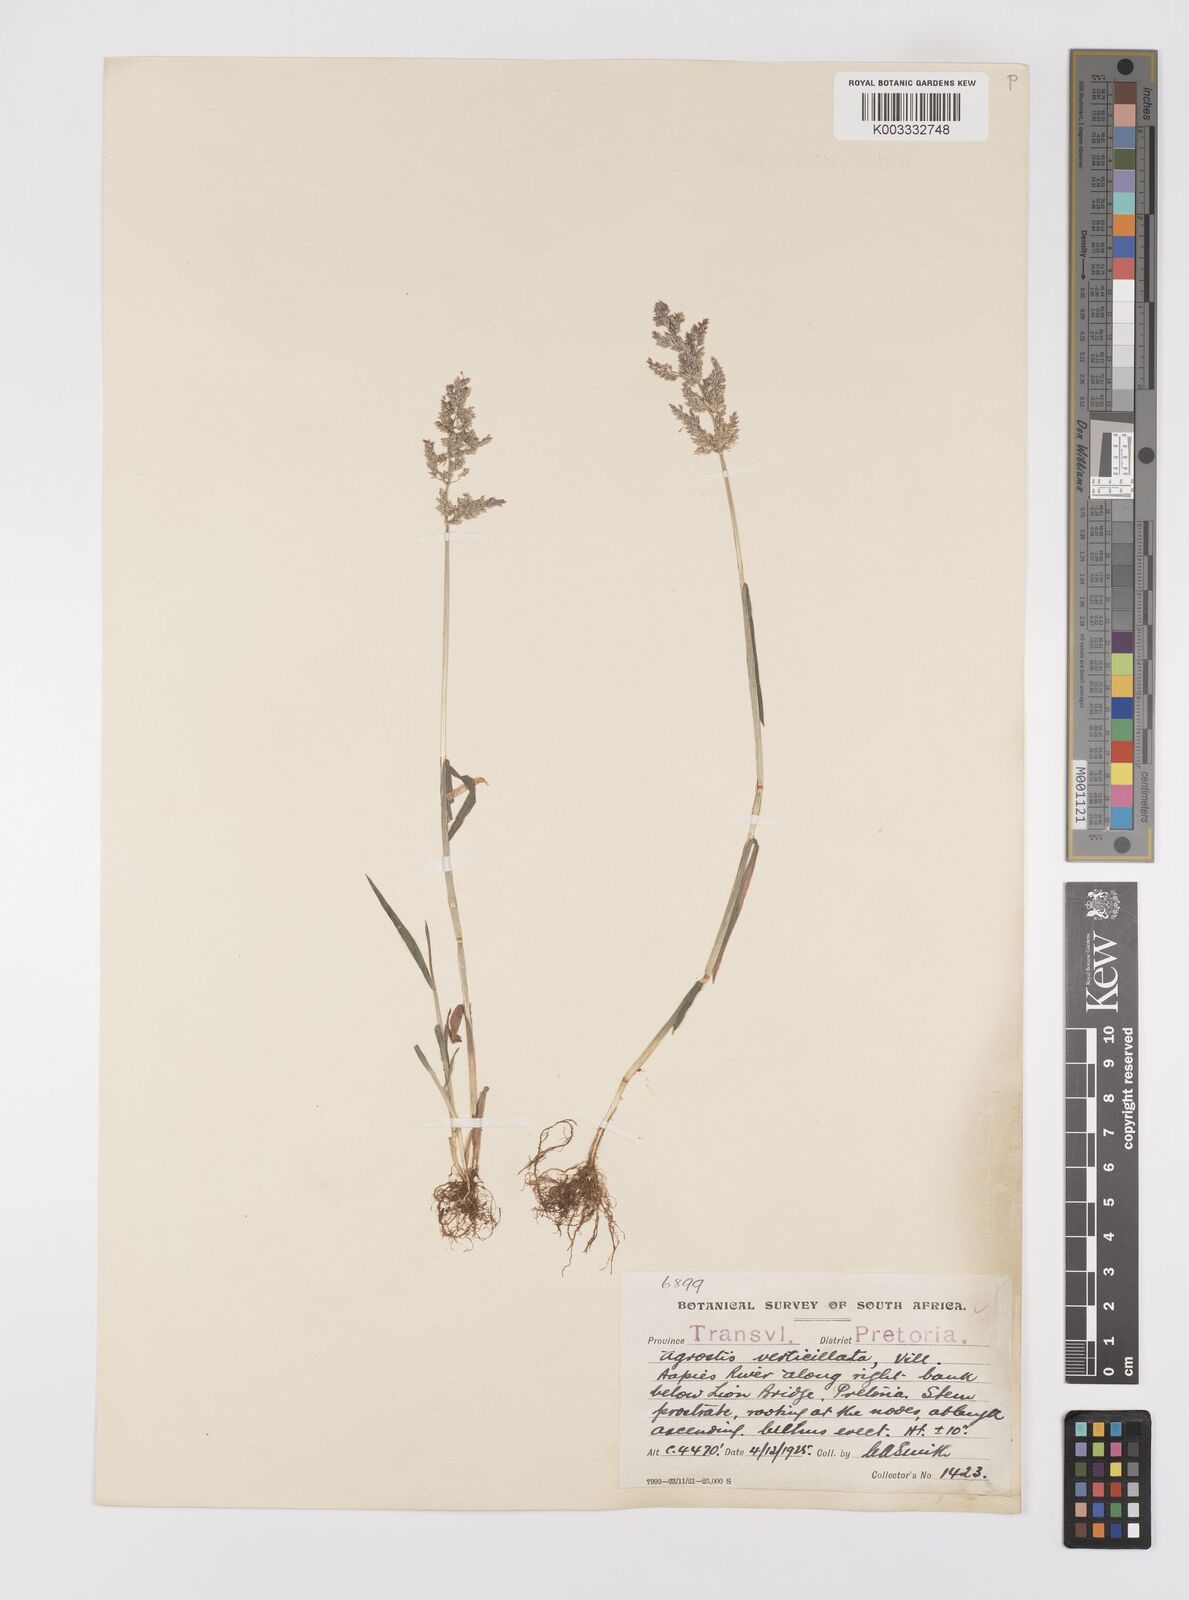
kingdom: Plantae
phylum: Tracheophyta
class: Liliopsida
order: Poales
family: Poaceae
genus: Polypogon
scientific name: Polypogon viridis
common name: Water bent
